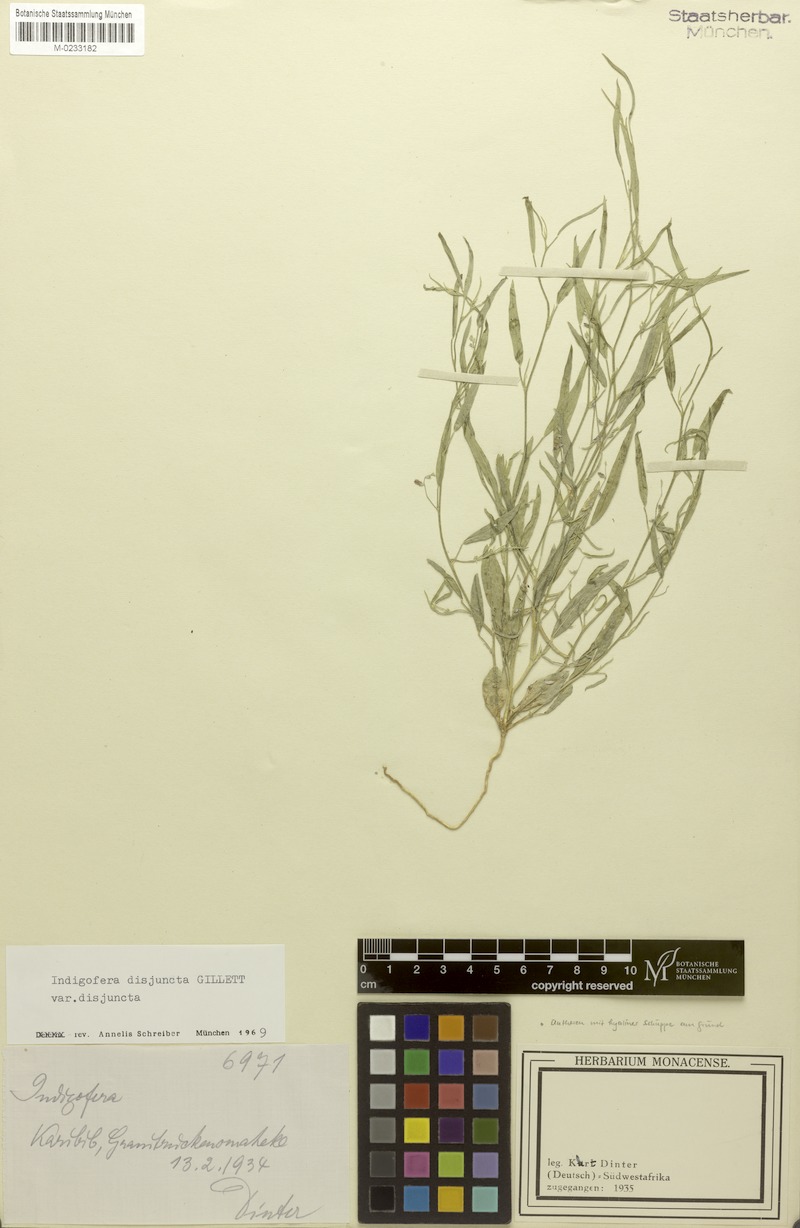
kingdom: Plantae
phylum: Tracheophyta
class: Magnoliopsida
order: Fabales
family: Fabaceae
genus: Microcharis
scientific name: Microcharis disjuncta
